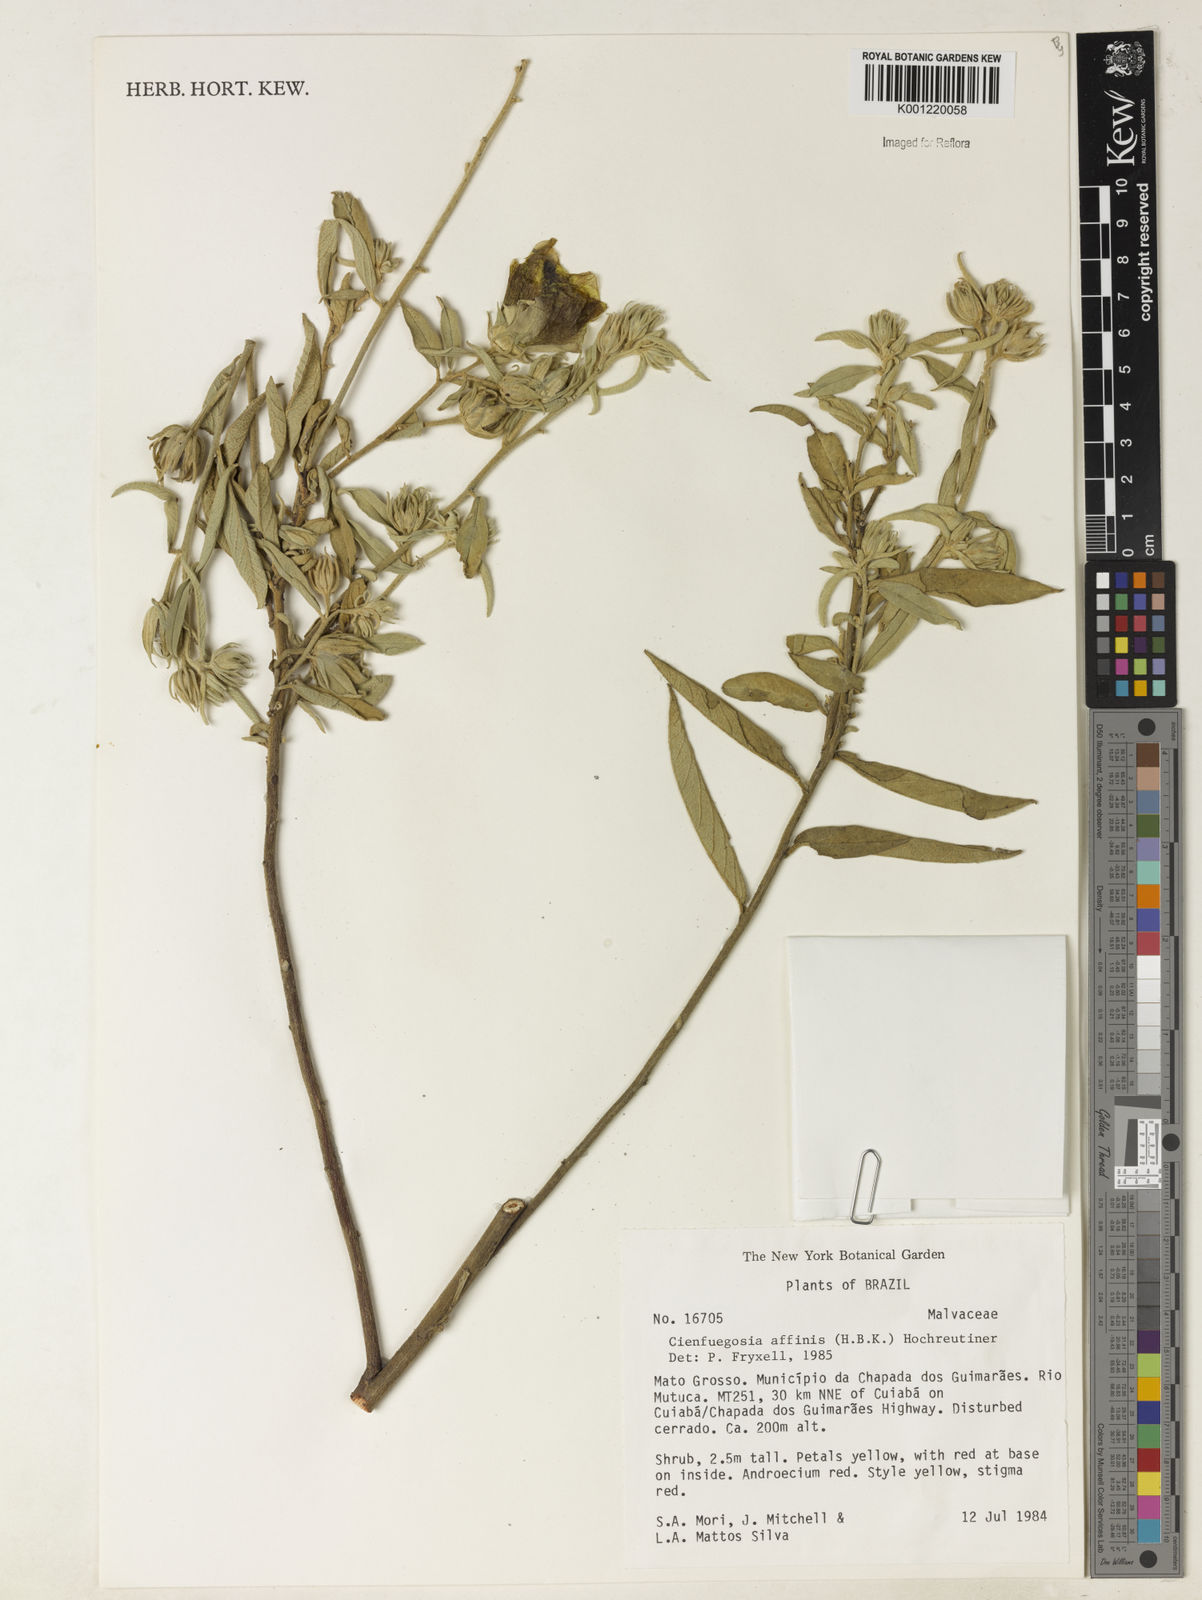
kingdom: Plantae
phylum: Tracheophyta
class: Magnoliopsida
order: Malvales
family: Malvaceae
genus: Cienfuegosia
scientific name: Cienfuegosia affinis
